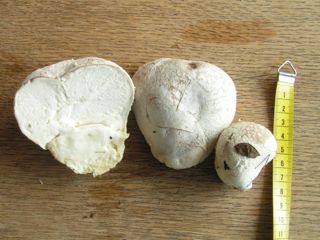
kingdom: Fungi
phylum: Basidiomycota
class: Agaricomycetes
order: Agaricales
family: Lycoperdaceae
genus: Bovistella
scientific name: Bovistella utriformis
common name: skællet støvbold
